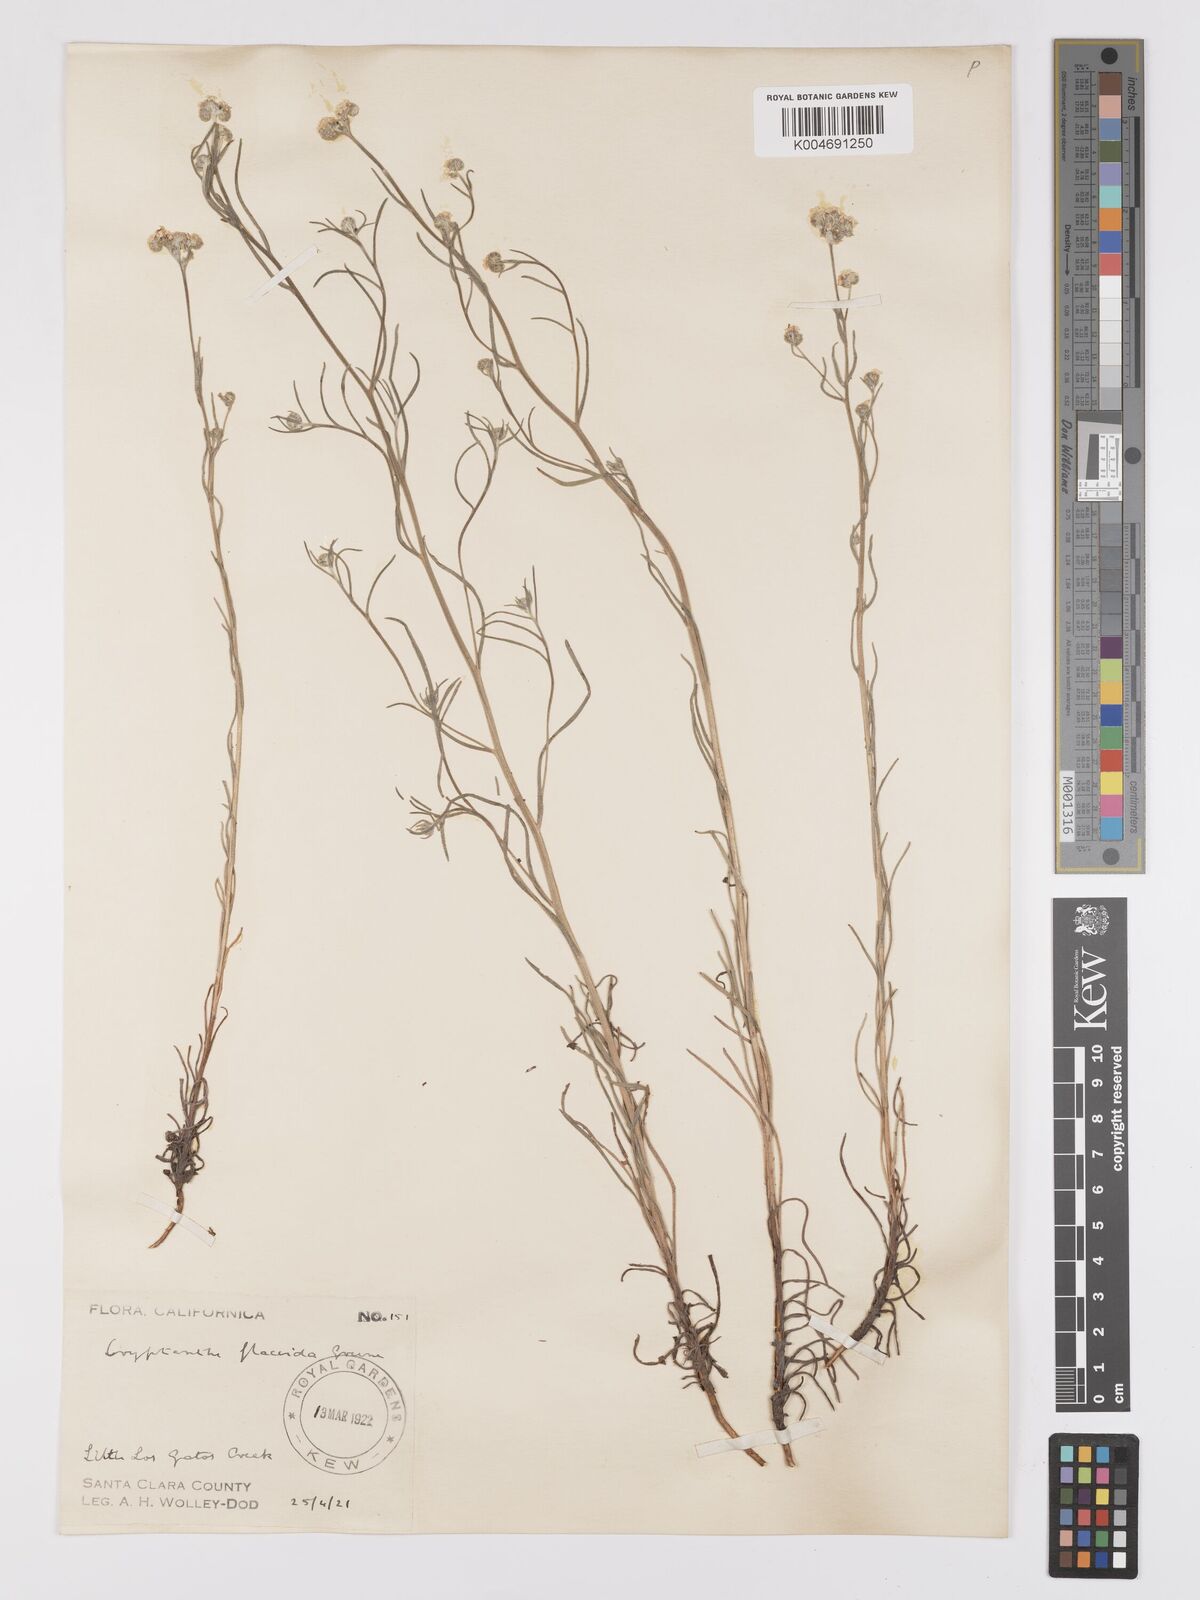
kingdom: Plantae
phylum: Tracheophyta
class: Magnoliopsida
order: Boraginales
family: Boraginaceae
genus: Cryptantha
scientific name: Cryptantha flaccida
